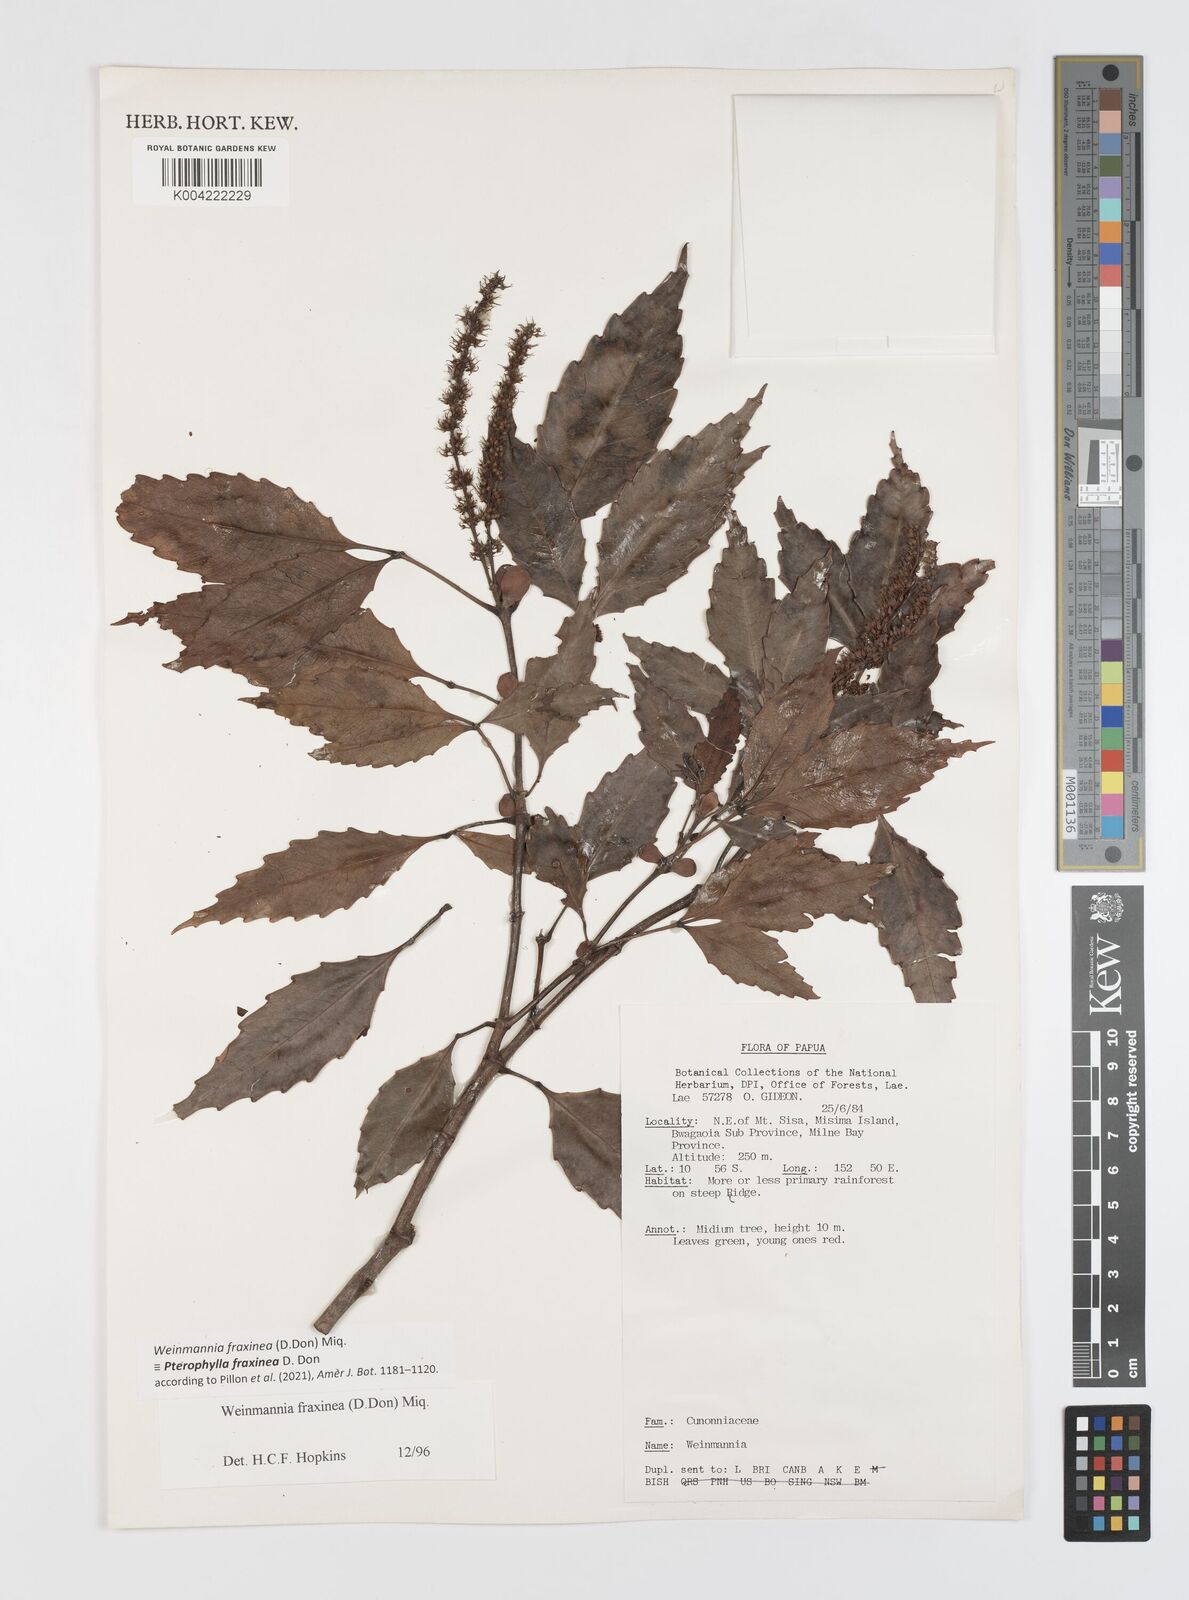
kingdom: Plantae
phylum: Tracheophyta
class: Magnoliopsida
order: Oxalidales
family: Cunoniaceae
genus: Pterophylla
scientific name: Pterophylla fraxinea
